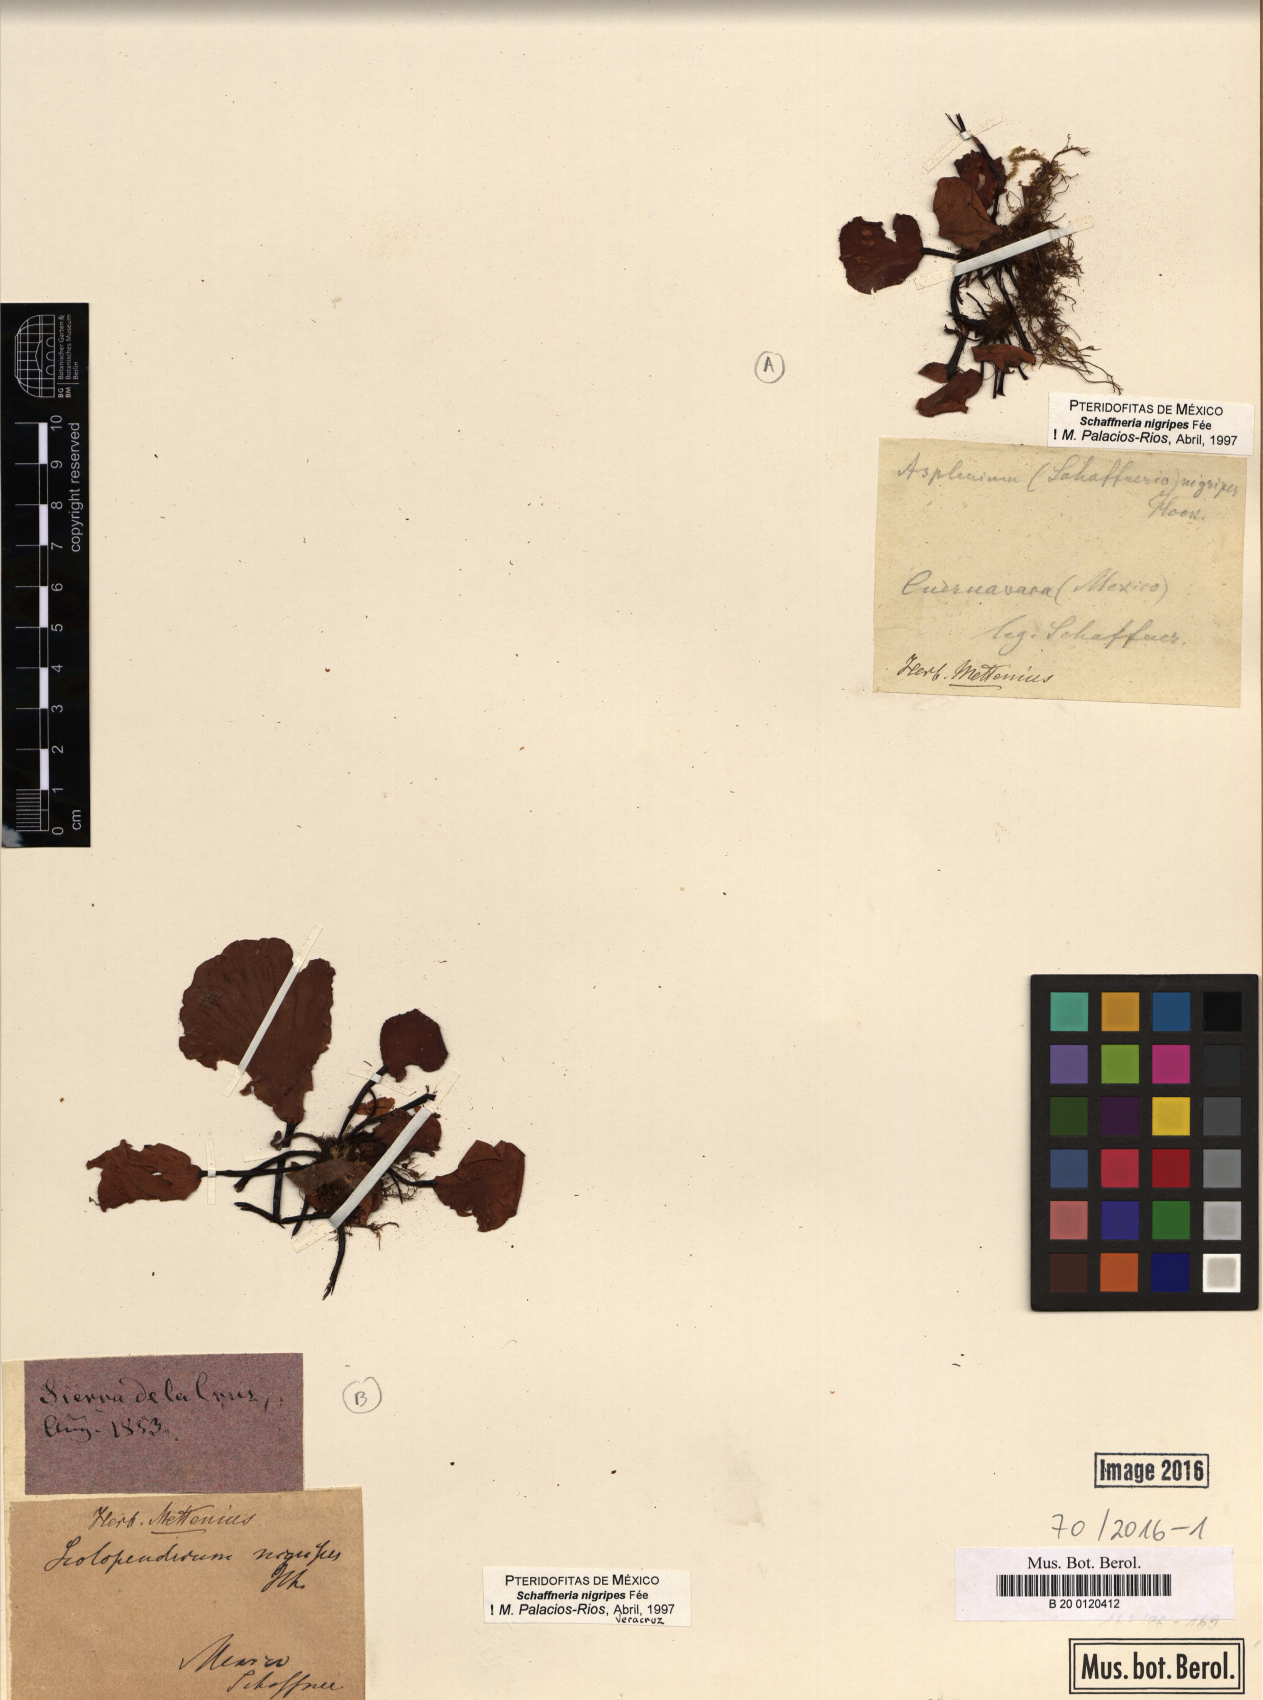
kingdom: Plantae
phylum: Tracheophyta
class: Polypodiopsida
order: Polypodiales
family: Aspleniaceae
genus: Asplenium
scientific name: Asplenium nigripes
